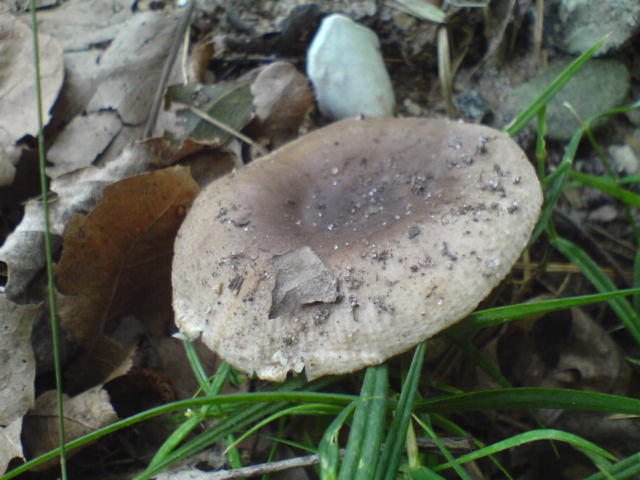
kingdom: Fungi
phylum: Basidiomycota
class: Agaricomycetes
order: Russulales
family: Russulaceae
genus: Russula
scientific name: Russula amoenolens
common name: skarp kam-skørhat
